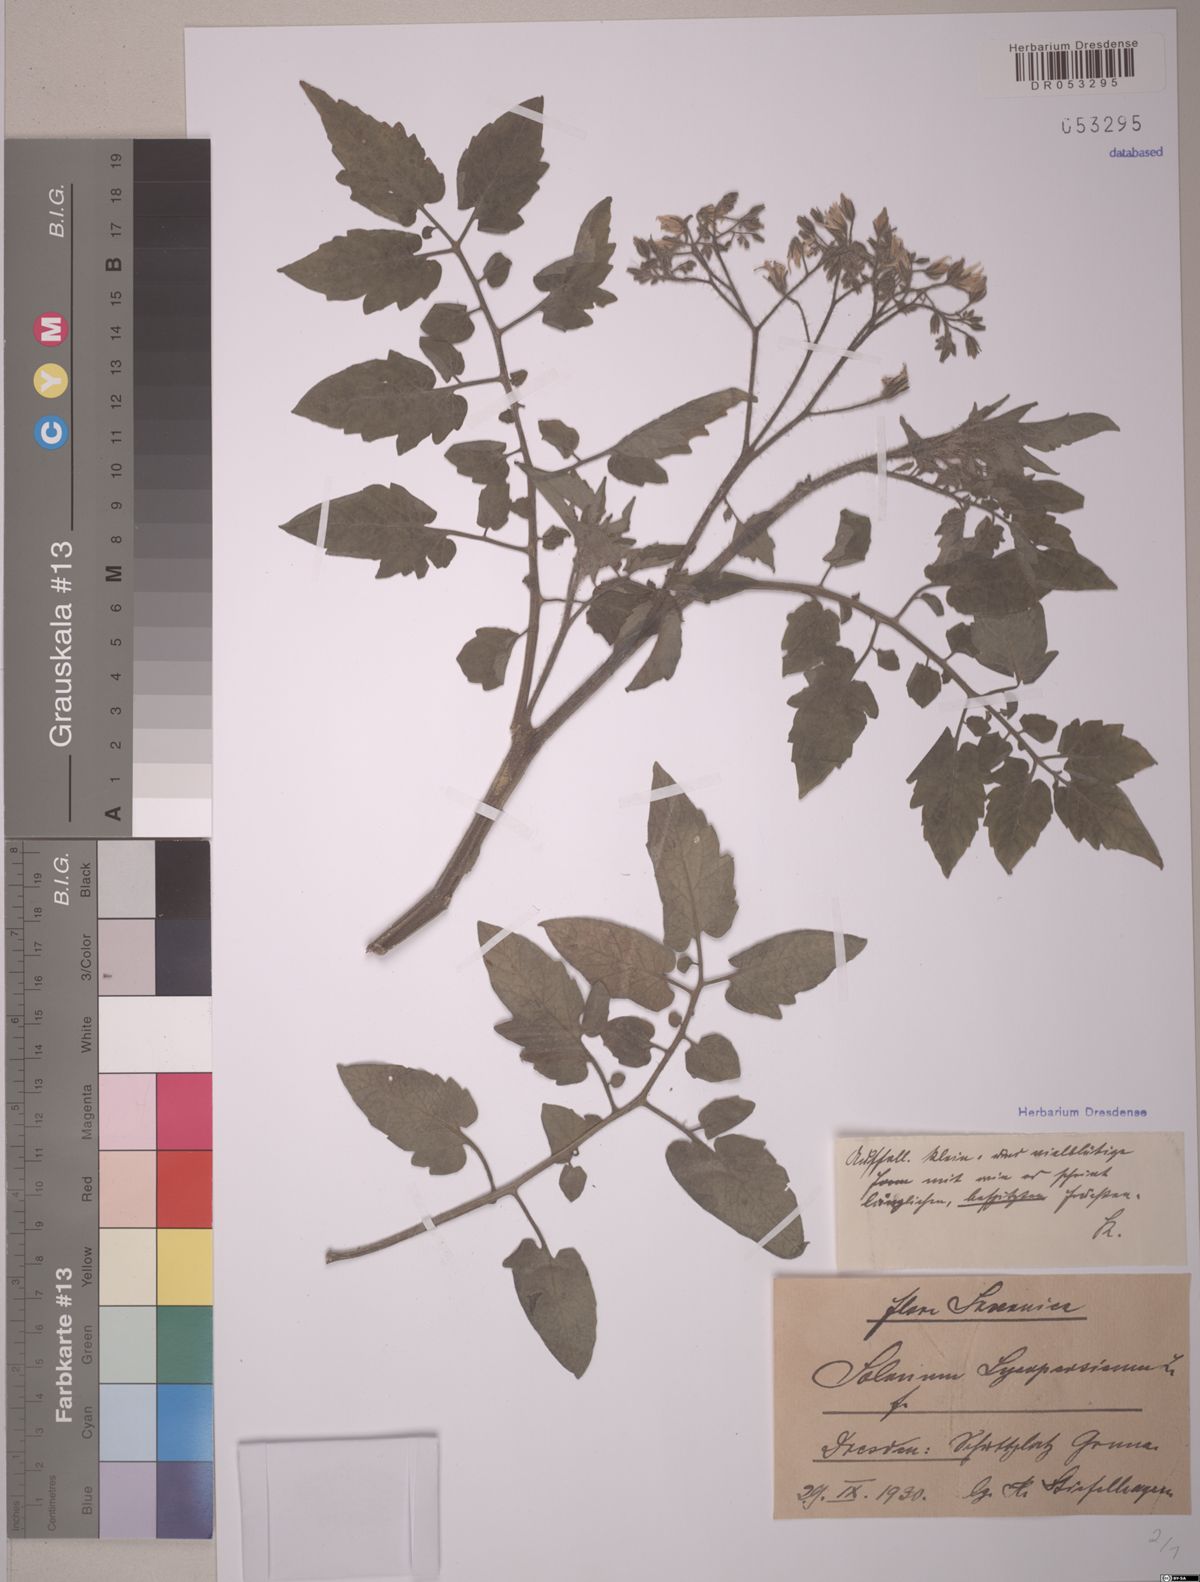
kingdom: Plantae
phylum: Tracheophyta
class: Magnoliopsida
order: Solanales
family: Solanaceae
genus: Solanum
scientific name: Solanum lycopersicum
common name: Garden tomato
